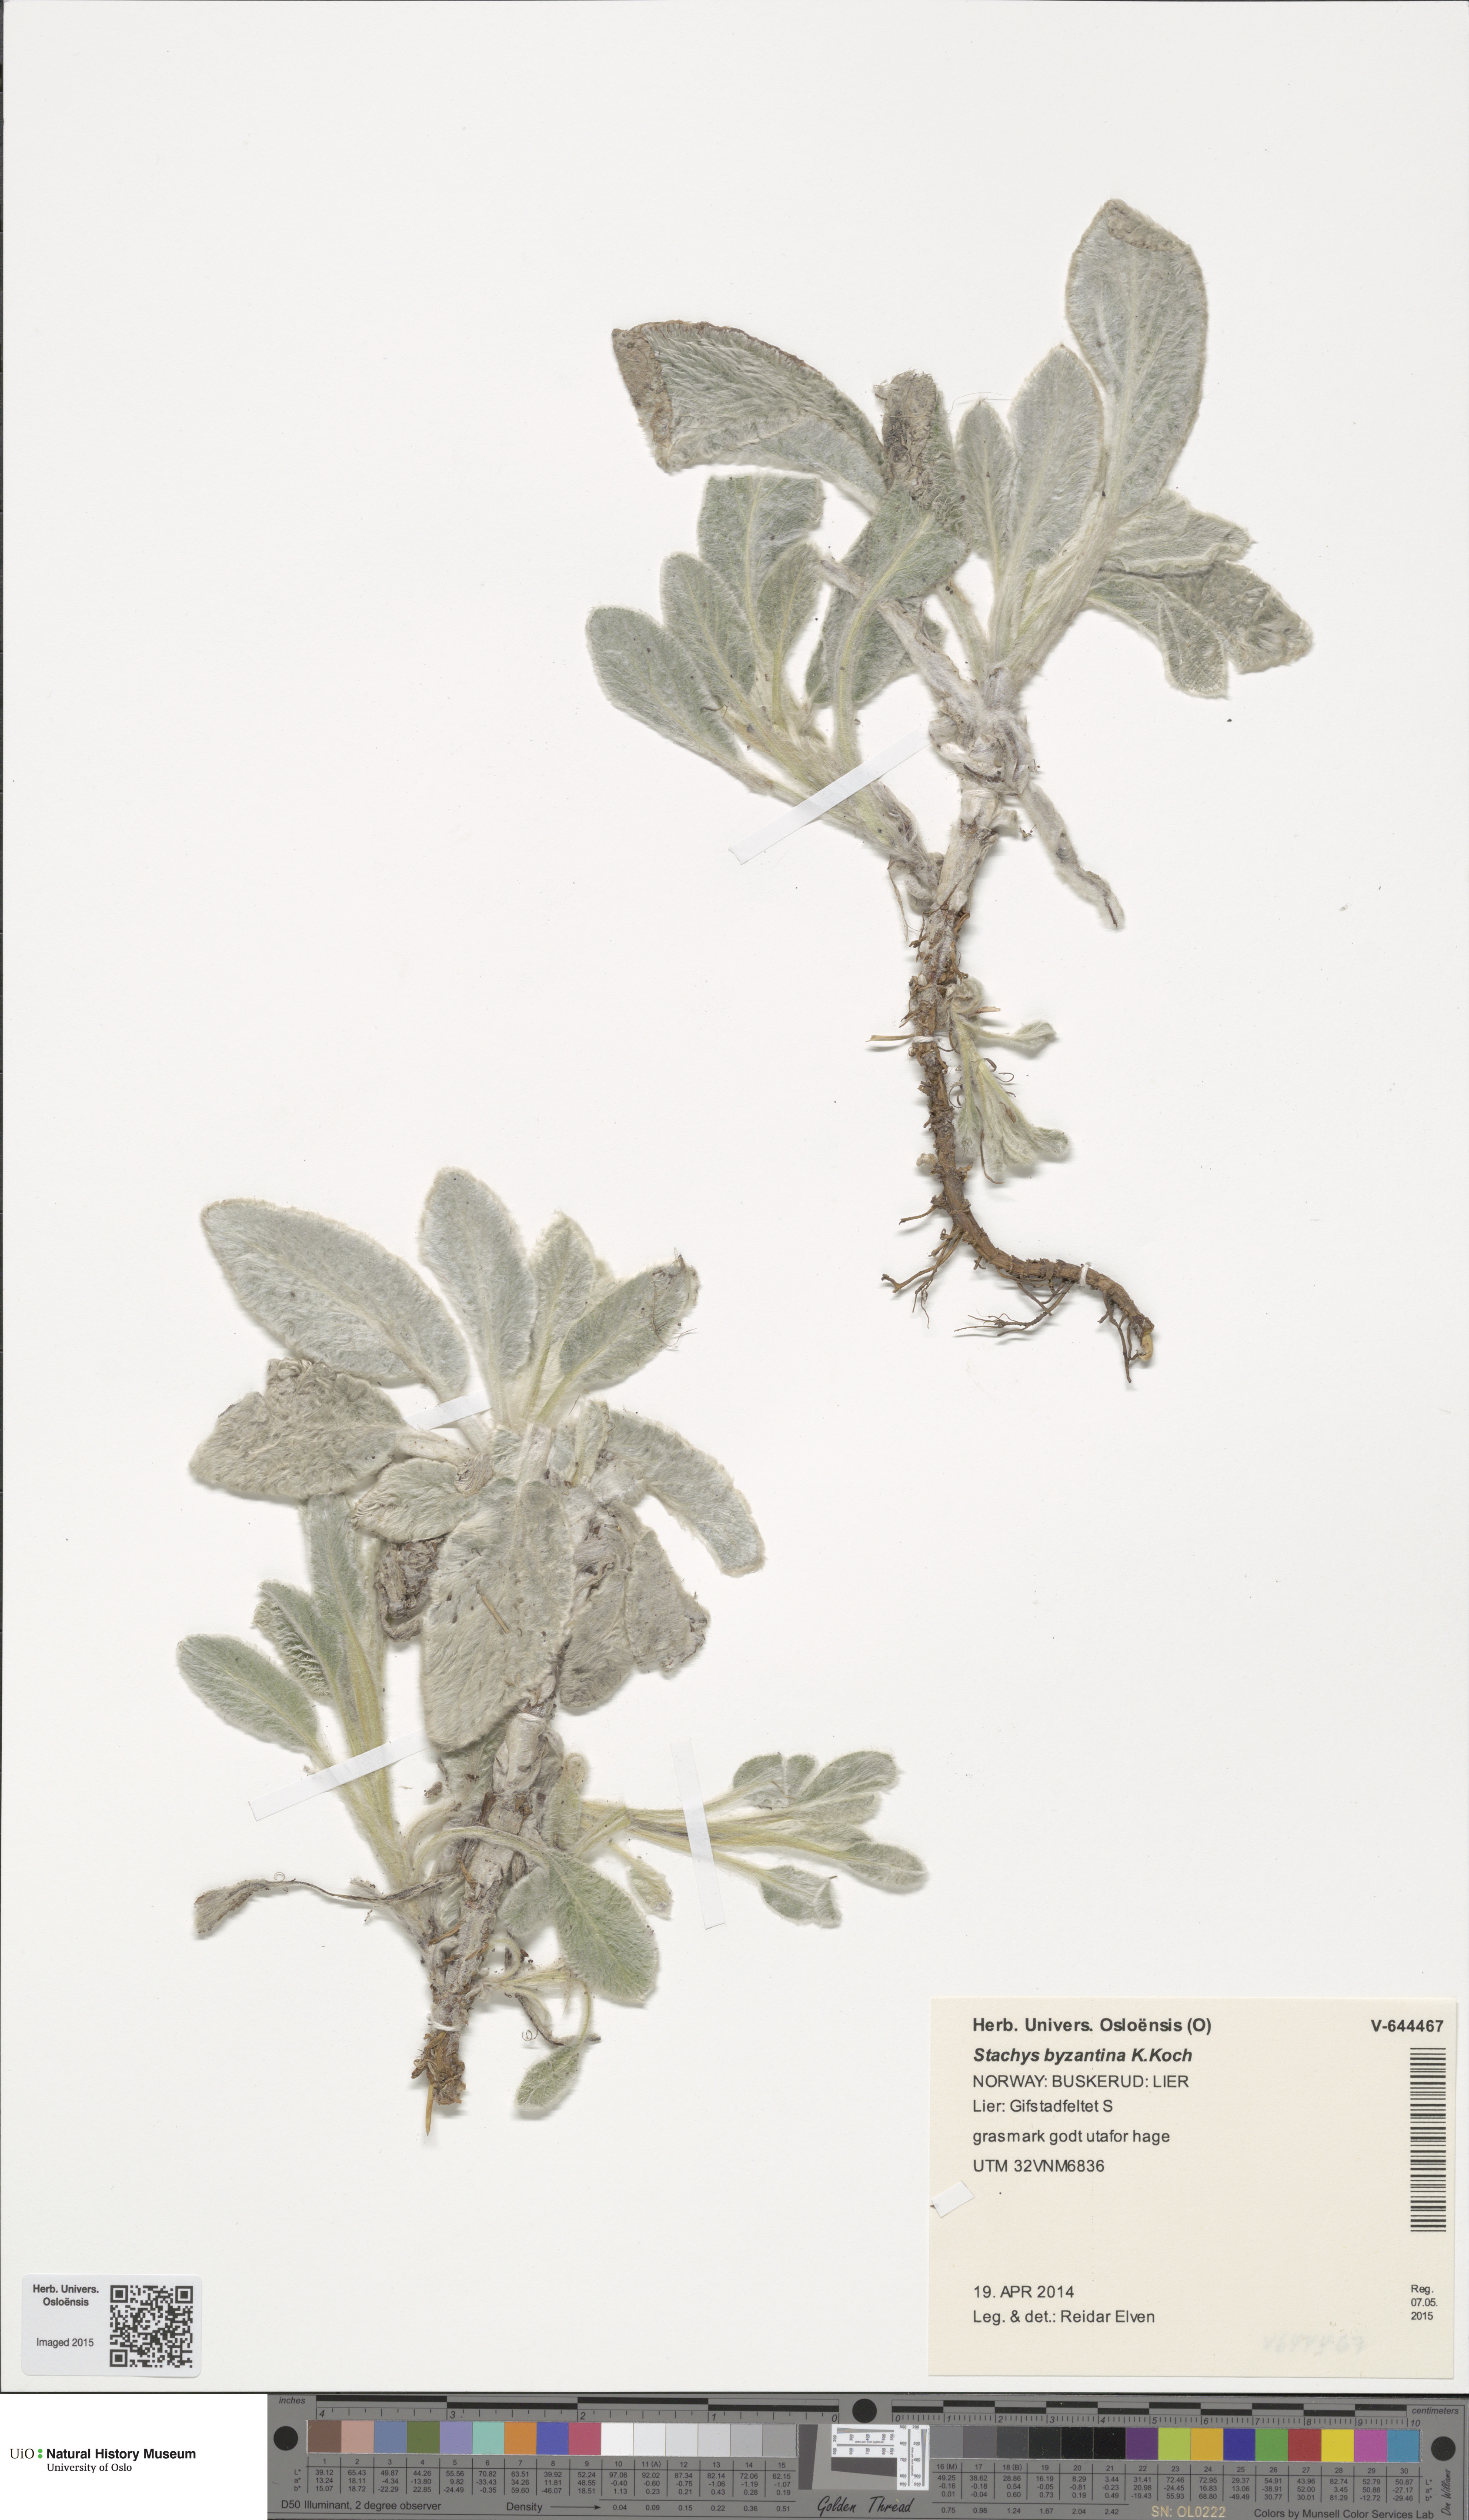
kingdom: Plantae
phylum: Tracheophyta
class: Magnoliopsida
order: Lamiales
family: Lamiaceae
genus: Stachys
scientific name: Stachys byzantina
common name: Lamb's-ear
